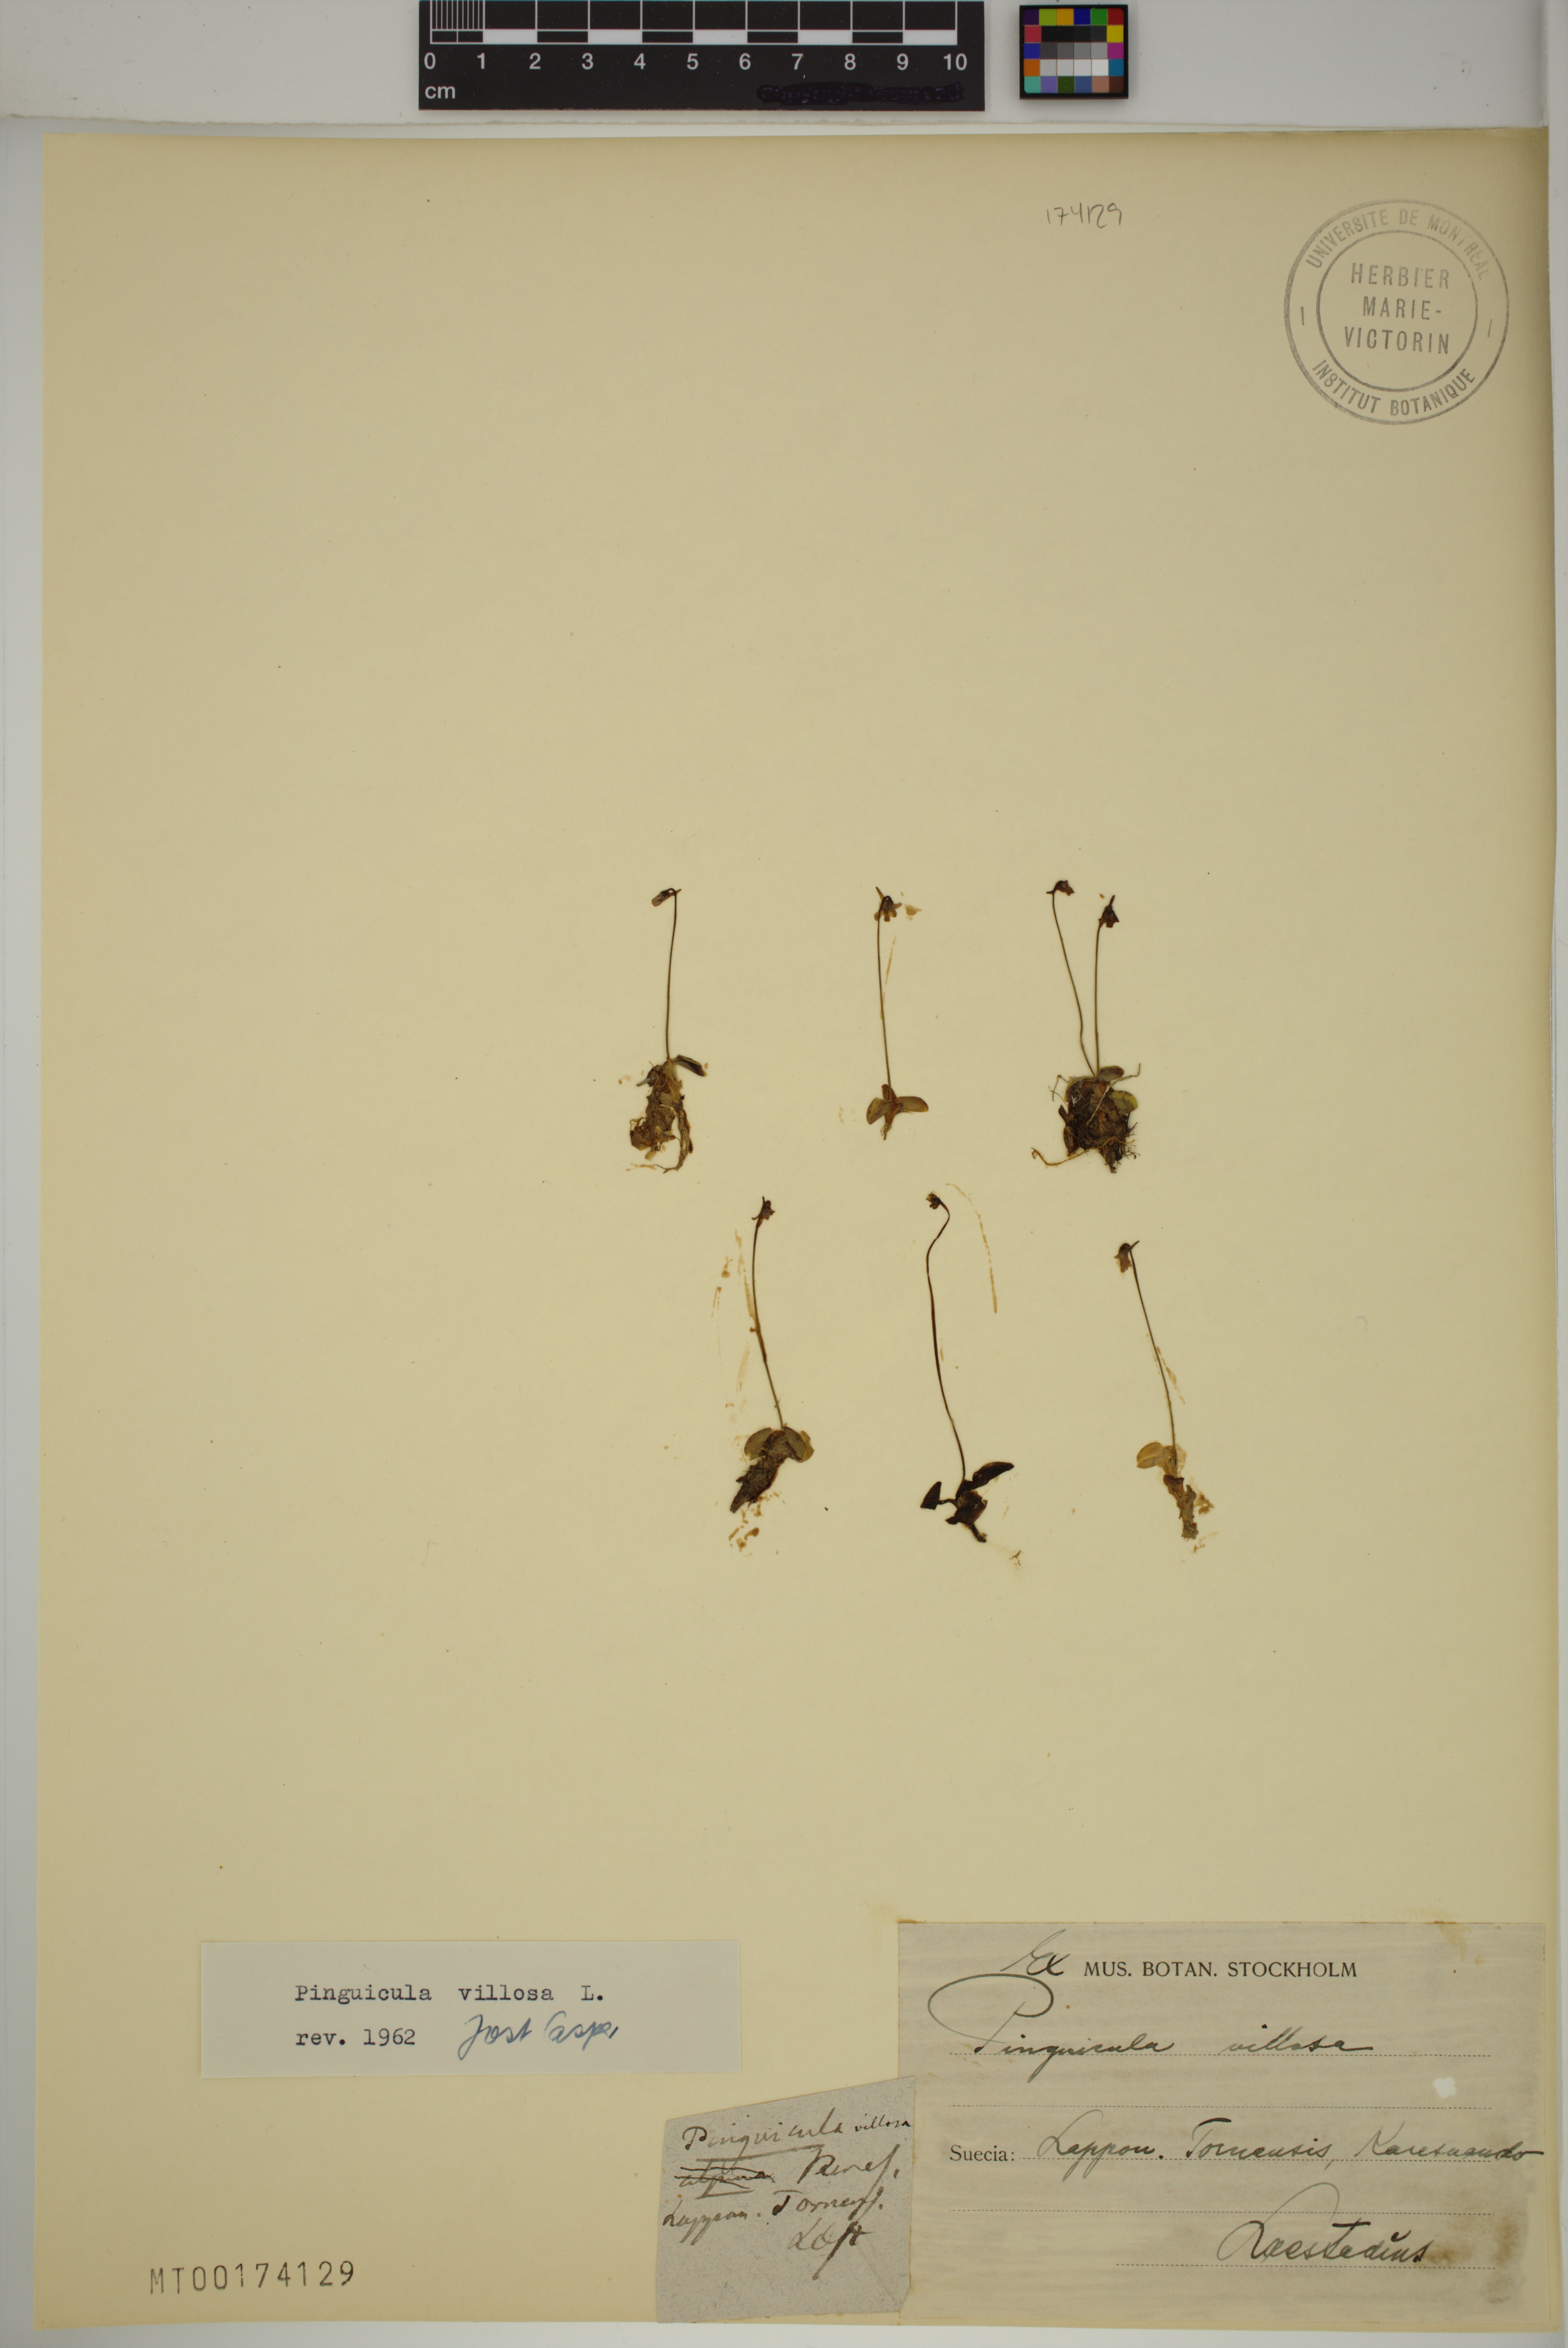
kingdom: Plantae
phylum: Tracheophyta
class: Magnoliopsida
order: Lamiales
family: Lentibulariaceae
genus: Pinguicula
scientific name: Pinguicula villosa
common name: Hairy butterwort
